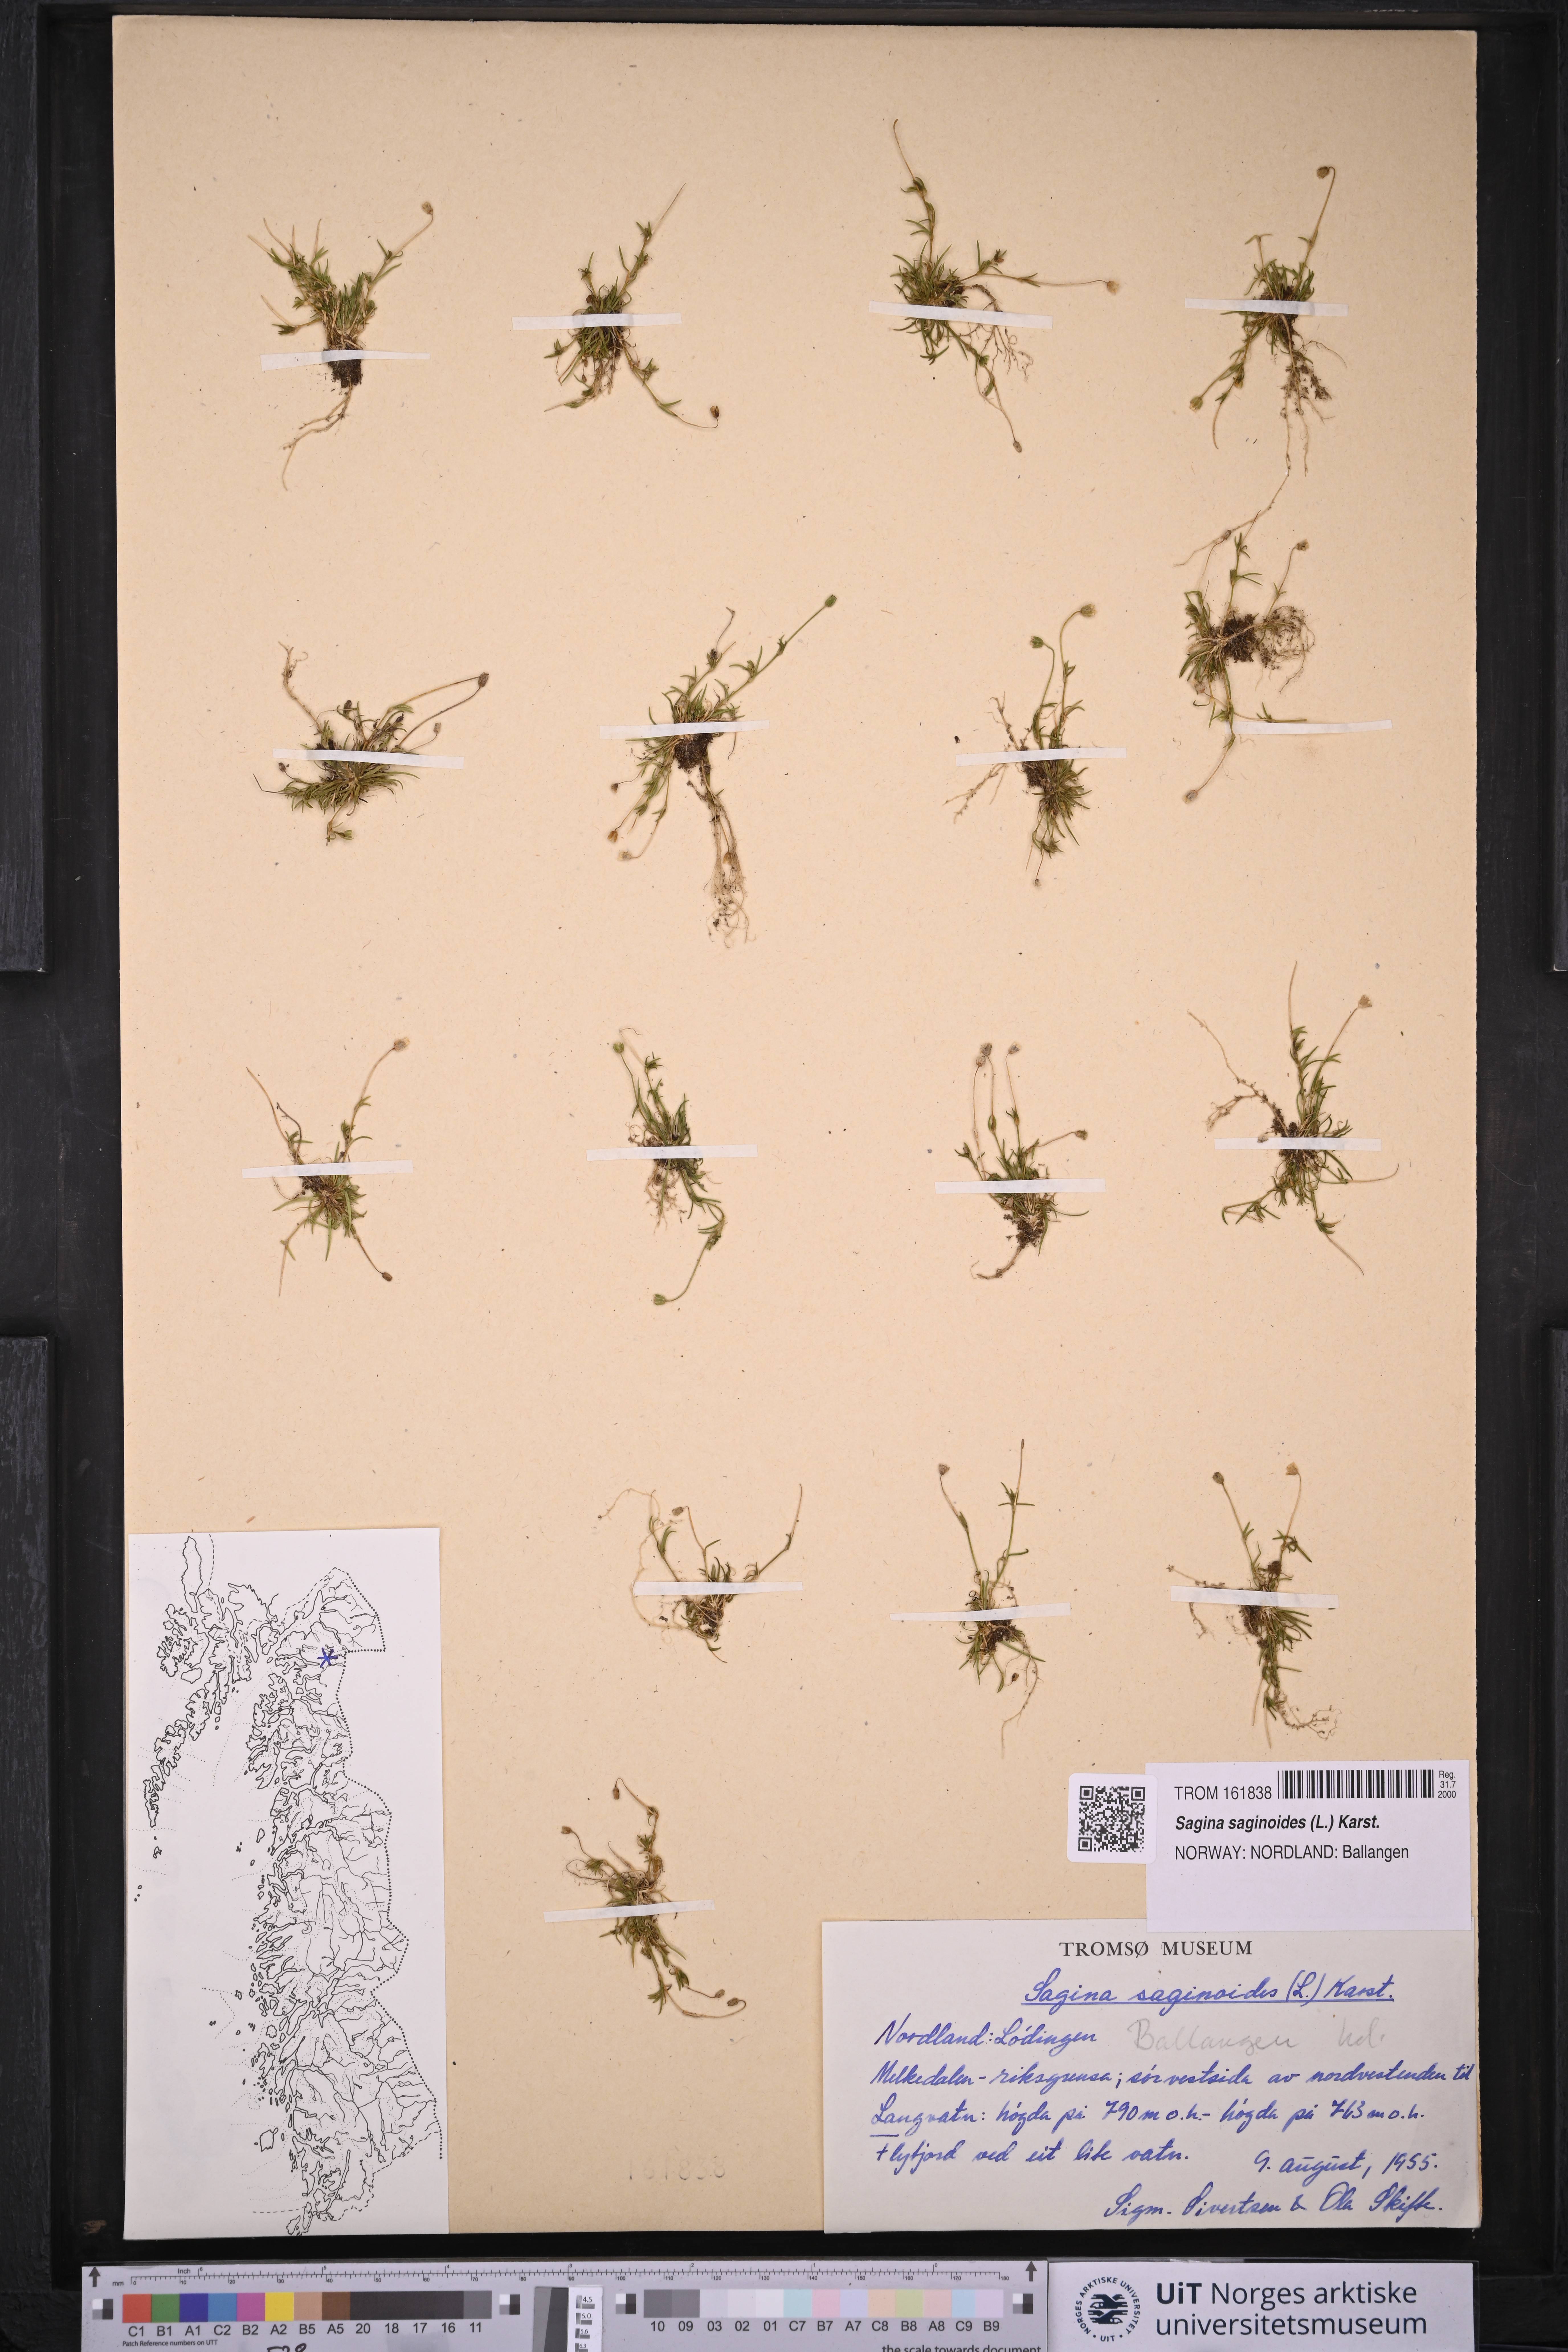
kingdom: Plantae
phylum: Tracheophyta
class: Magnoliopsida
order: Caryophyllales
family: Caryophyllaceae
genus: Sagina
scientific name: Sagina saginoides
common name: Alpine pearlwort
